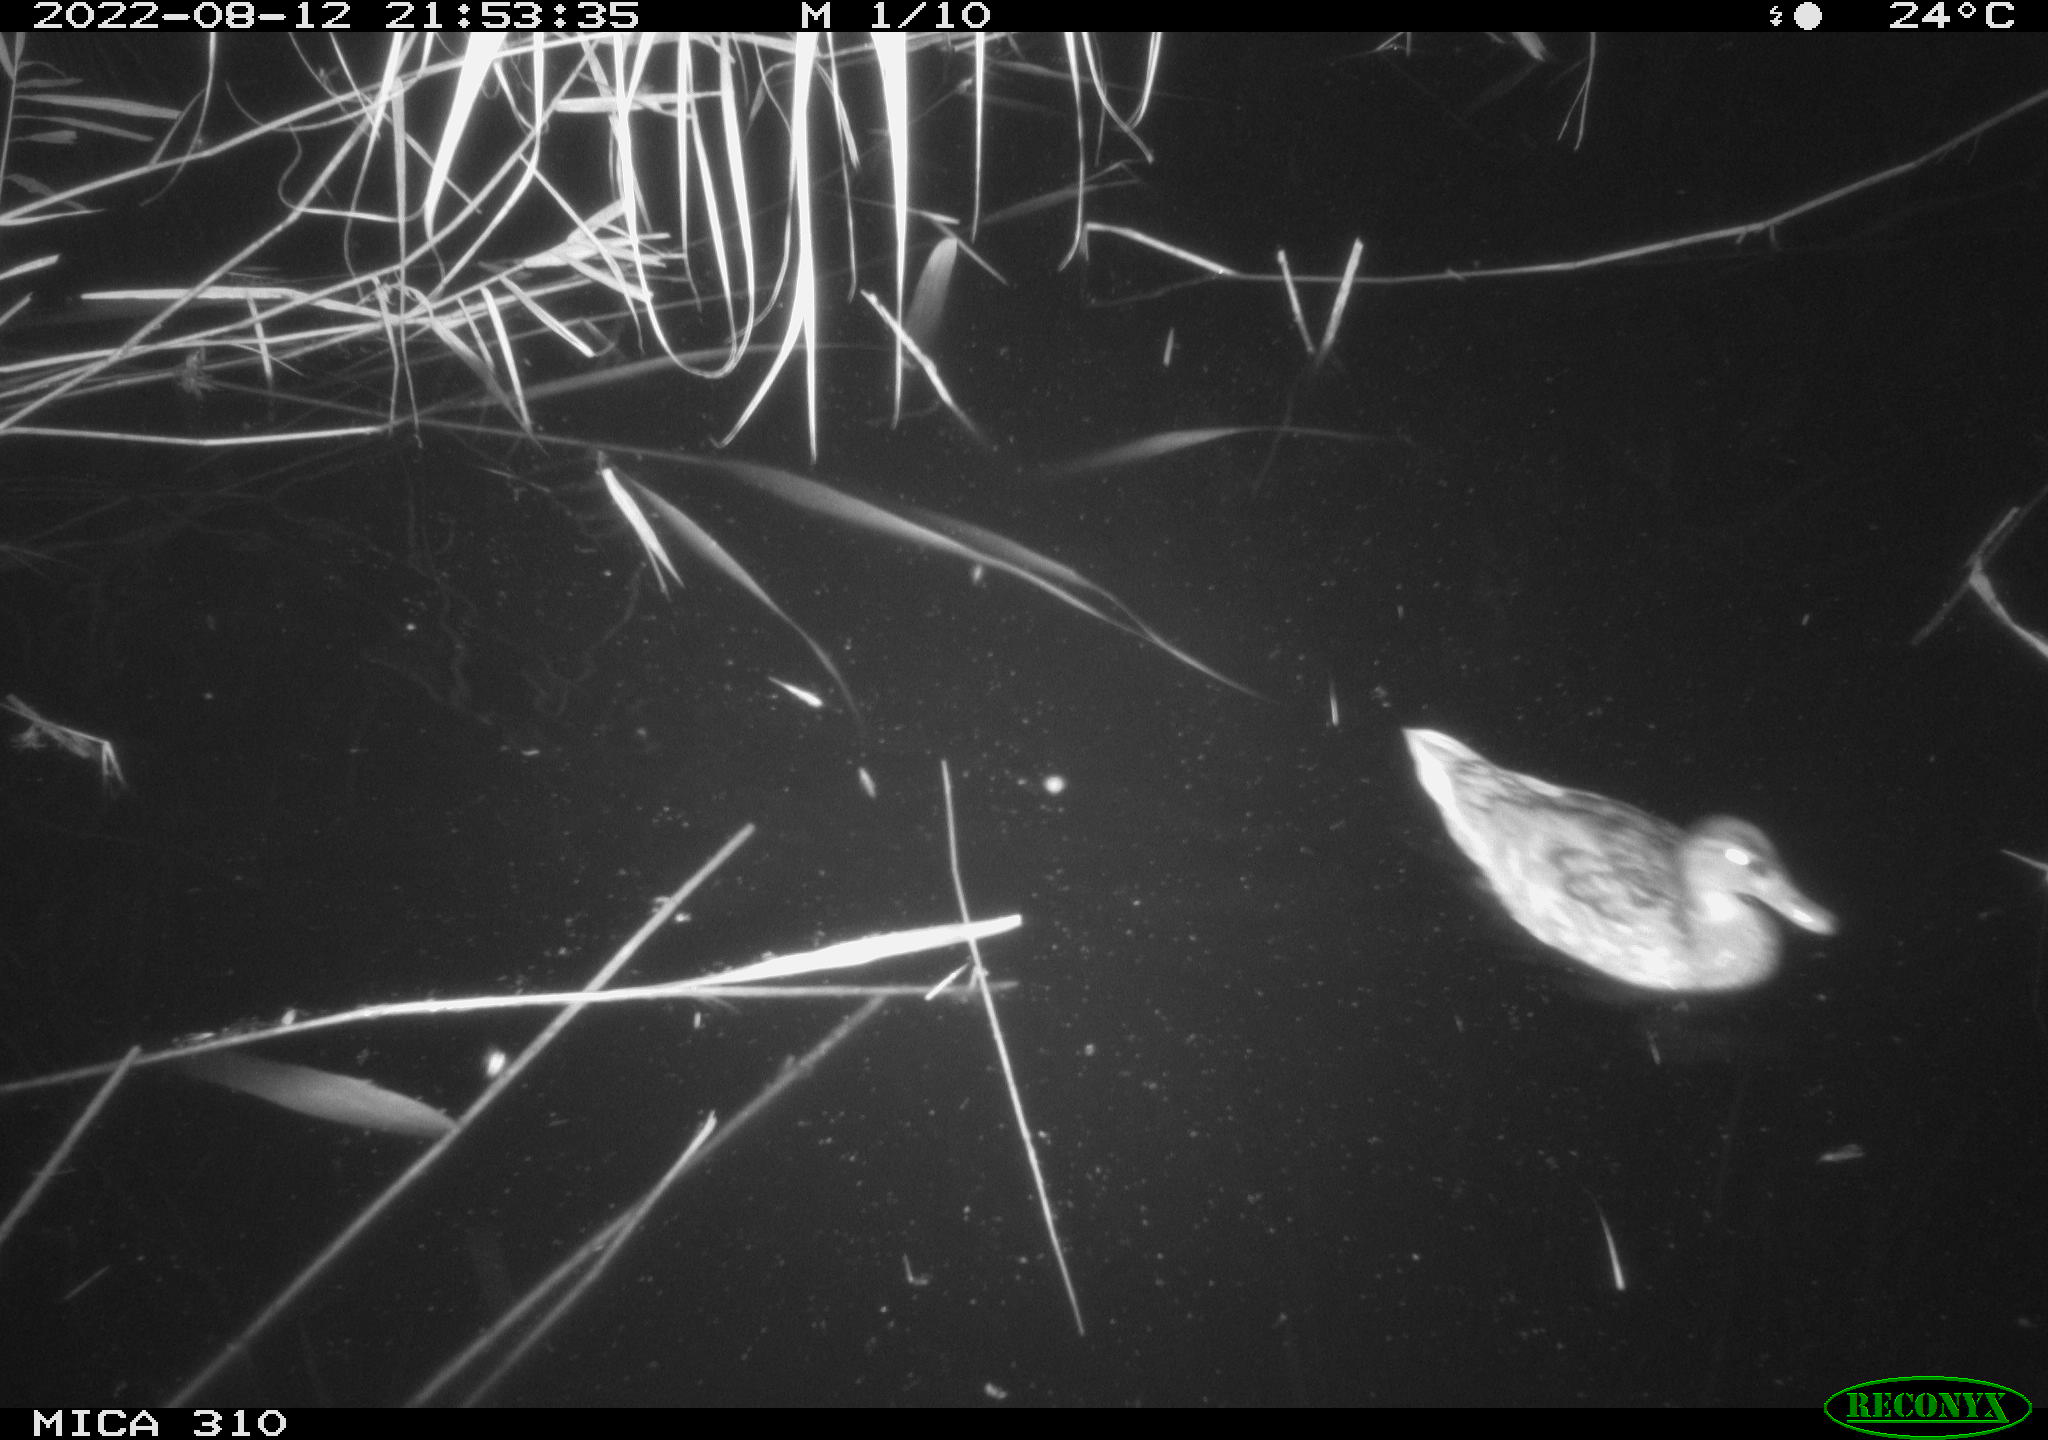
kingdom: Animalia
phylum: Chordata
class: Aves
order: Anseriformes
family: Anatidae
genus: Anas
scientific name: Anas platyrhynchos
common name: Mallard
